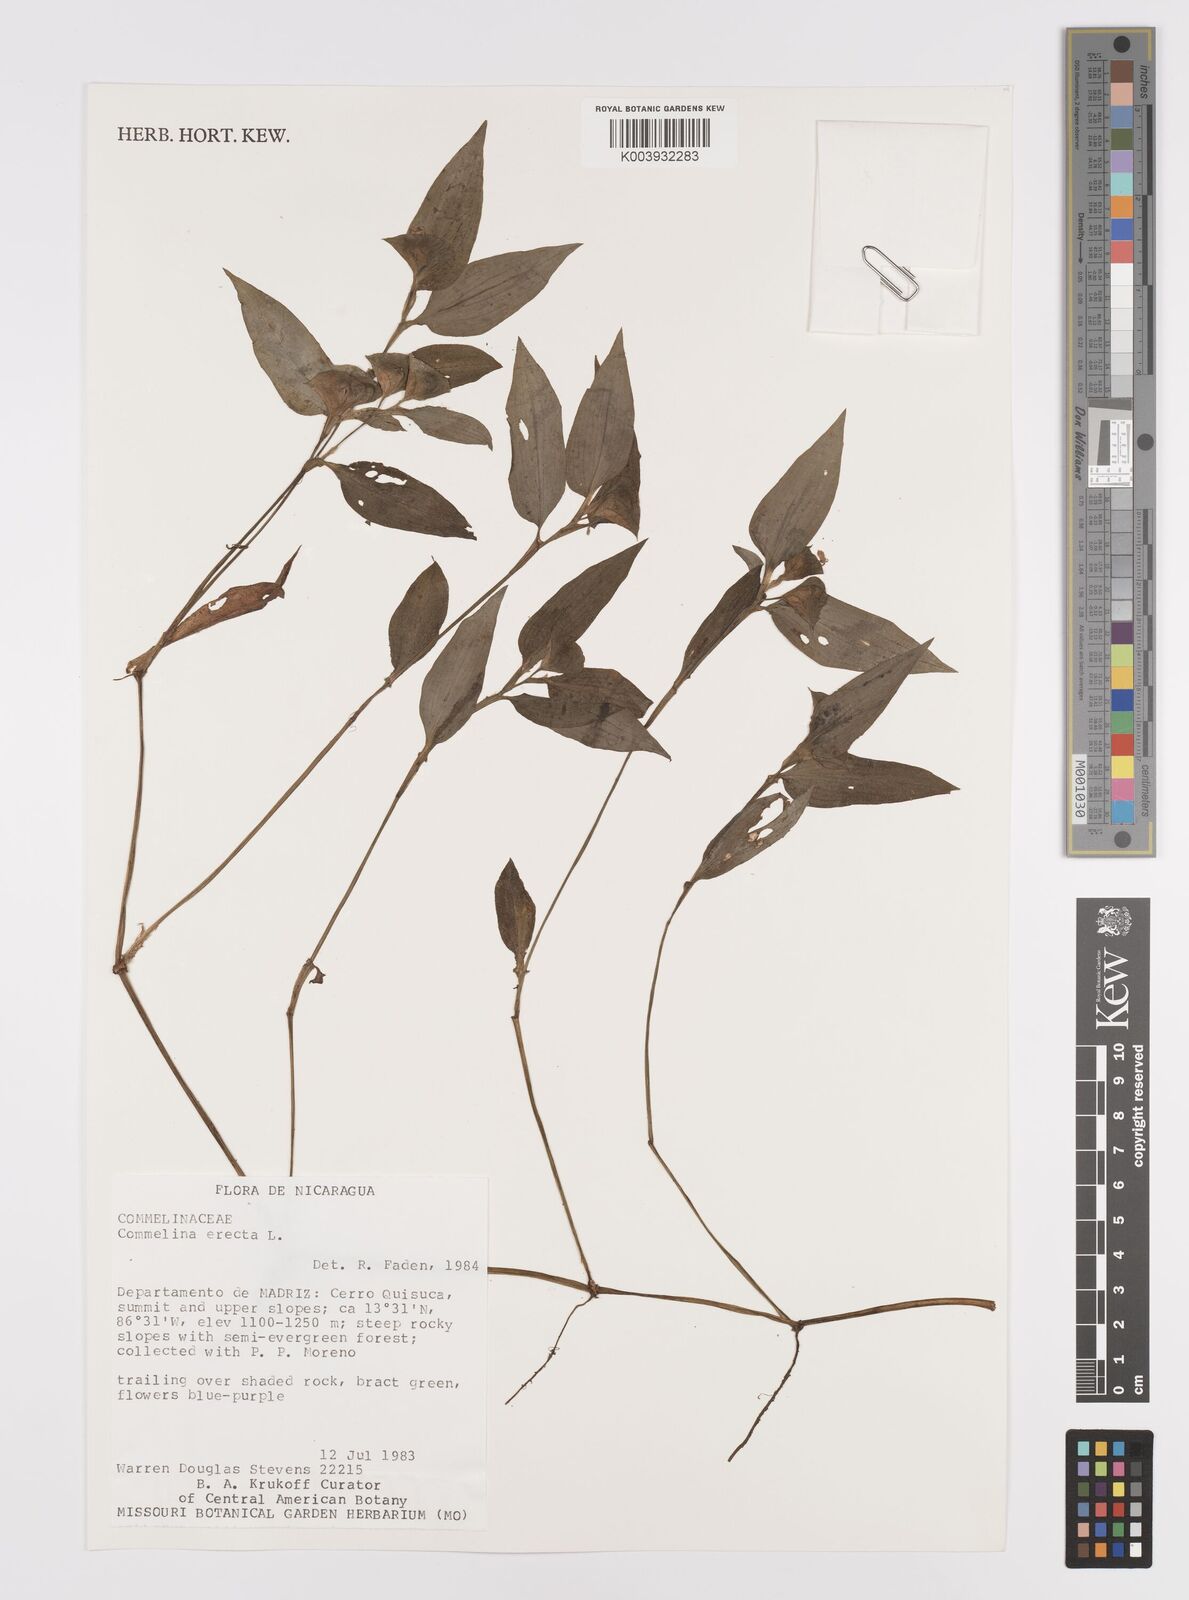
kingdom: Plantae
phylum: Tracheophyta
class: Liliopsida
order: Commelinales
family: Commelinaceae
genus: Commelina
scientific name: Commelina erecta
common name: Blousel blommetjie
